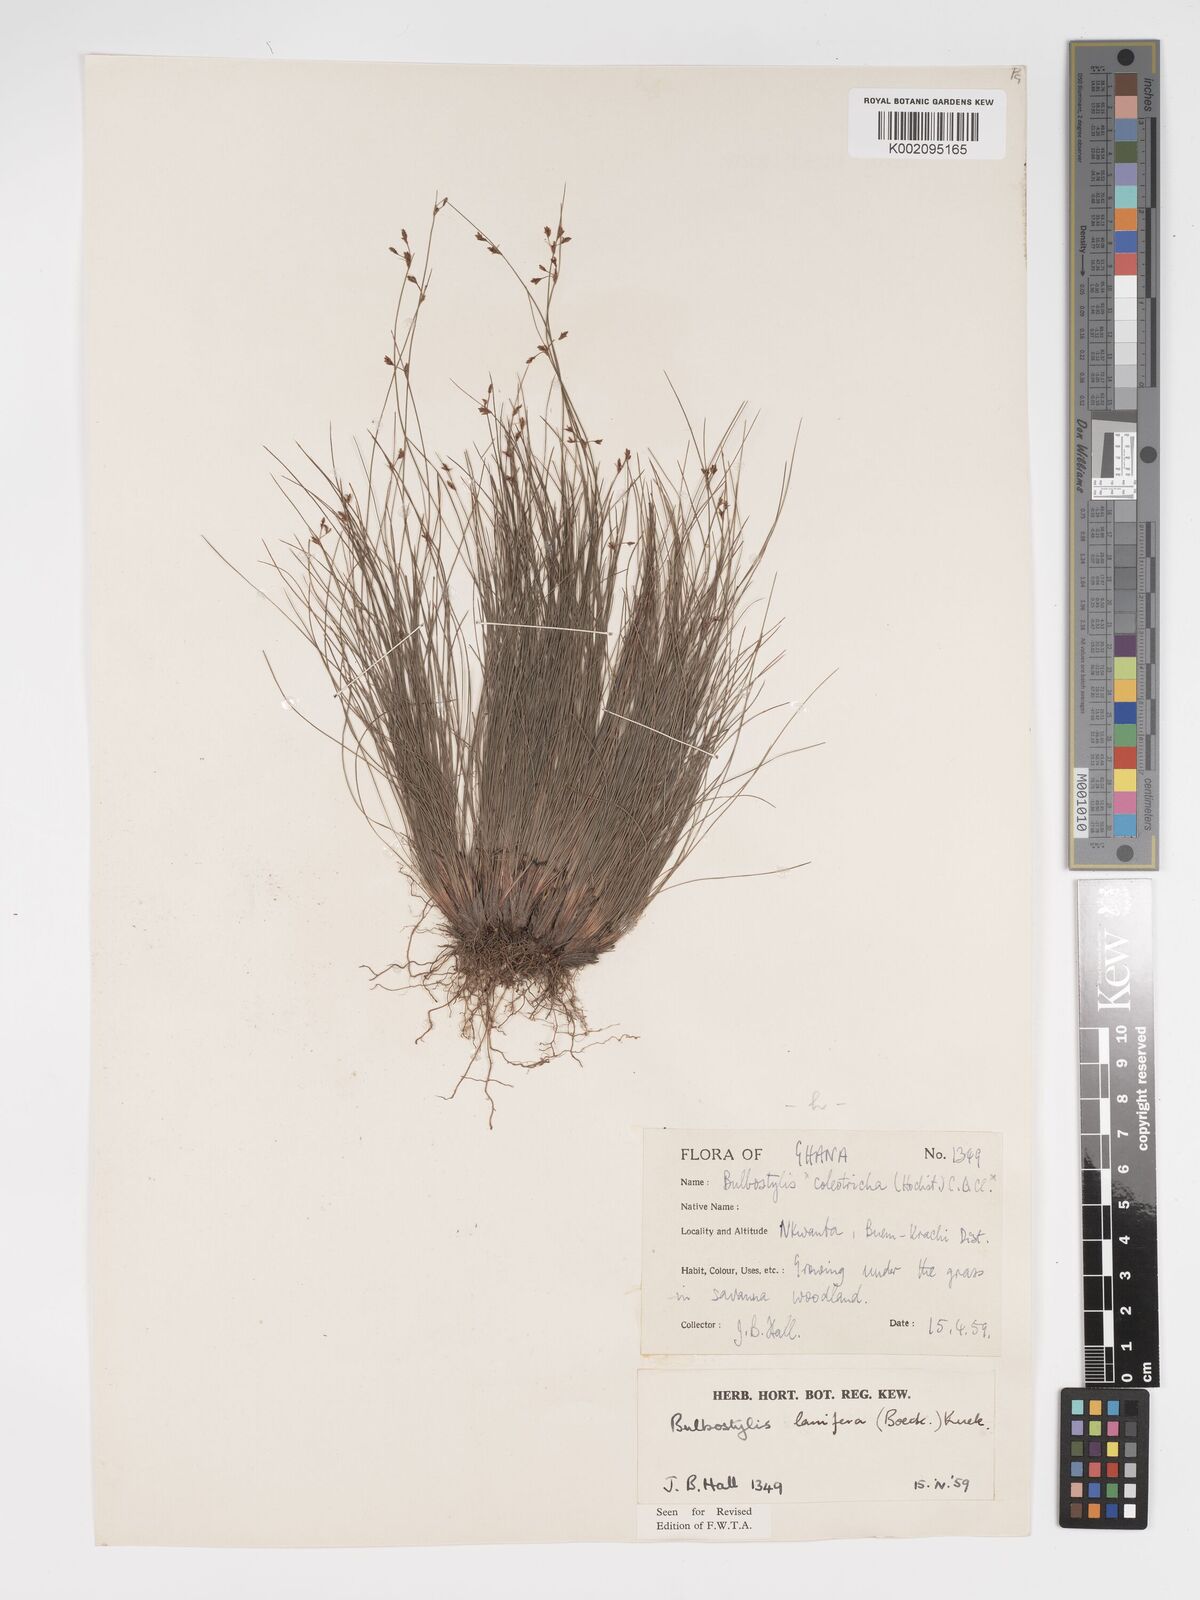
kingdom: Plantae
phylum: Tracheophyta
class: Liliopsida
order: Poales
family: Cyperaceae
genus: Bulbostylis
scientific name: Bulbostylis lanifera
